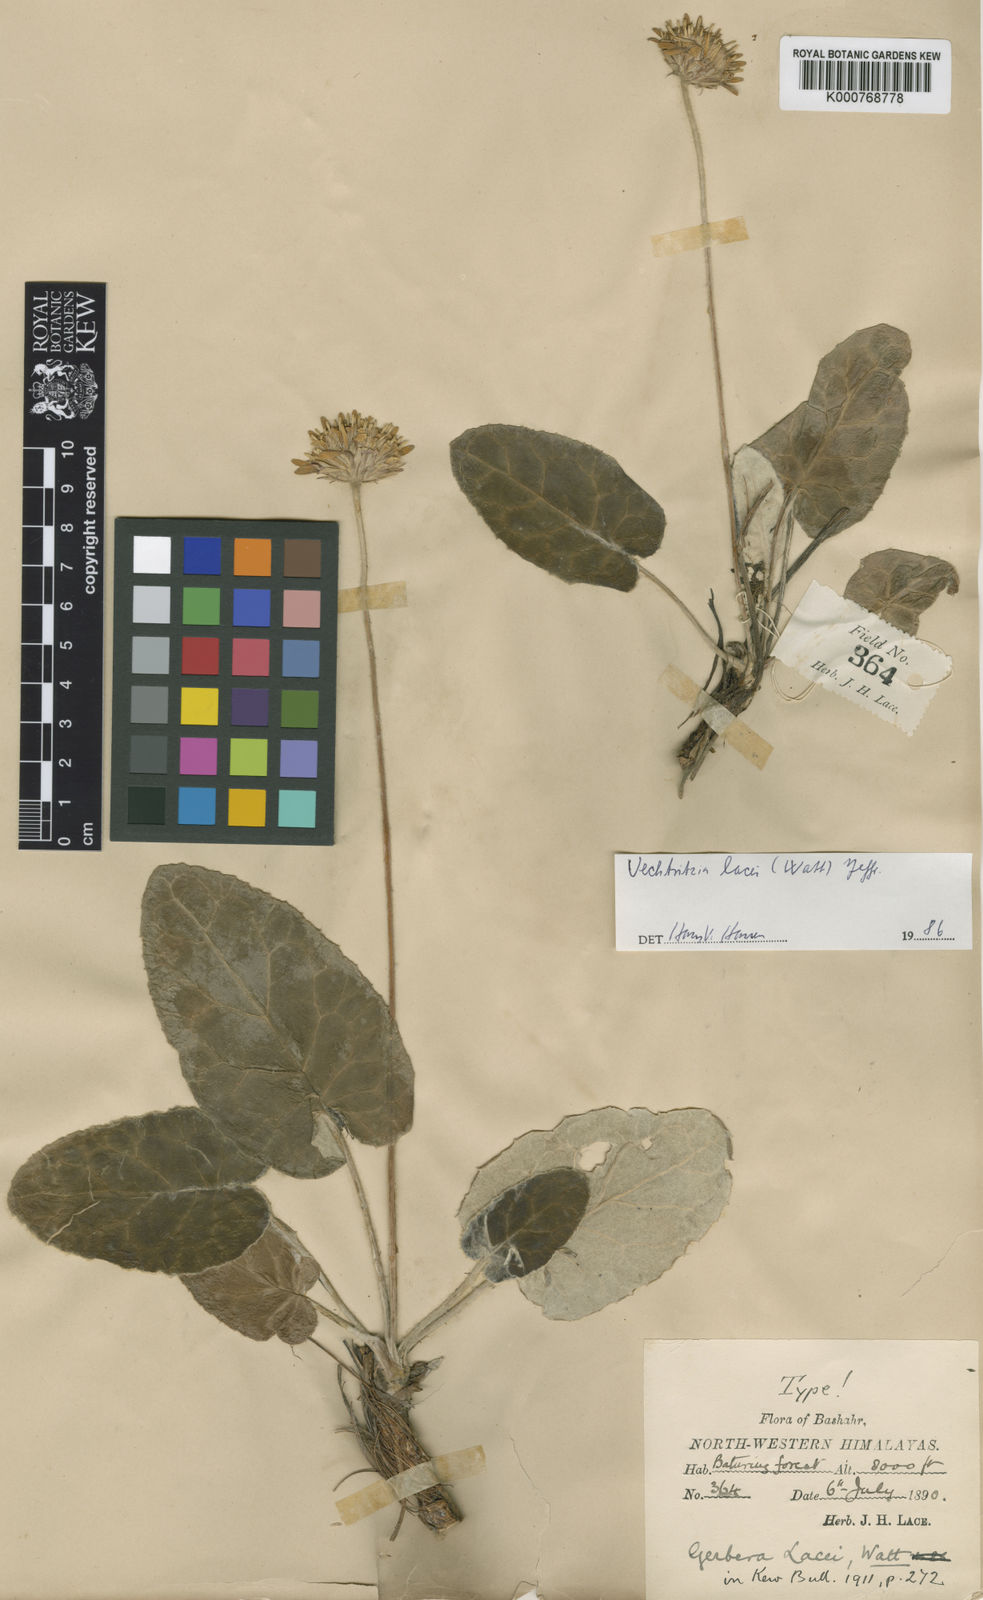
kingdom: Plantae
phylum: Tracheophyta
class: Magnoliopsida
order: Asterales
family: Asteraceae
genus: Oreoseris
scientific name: Oreoseris lacei
